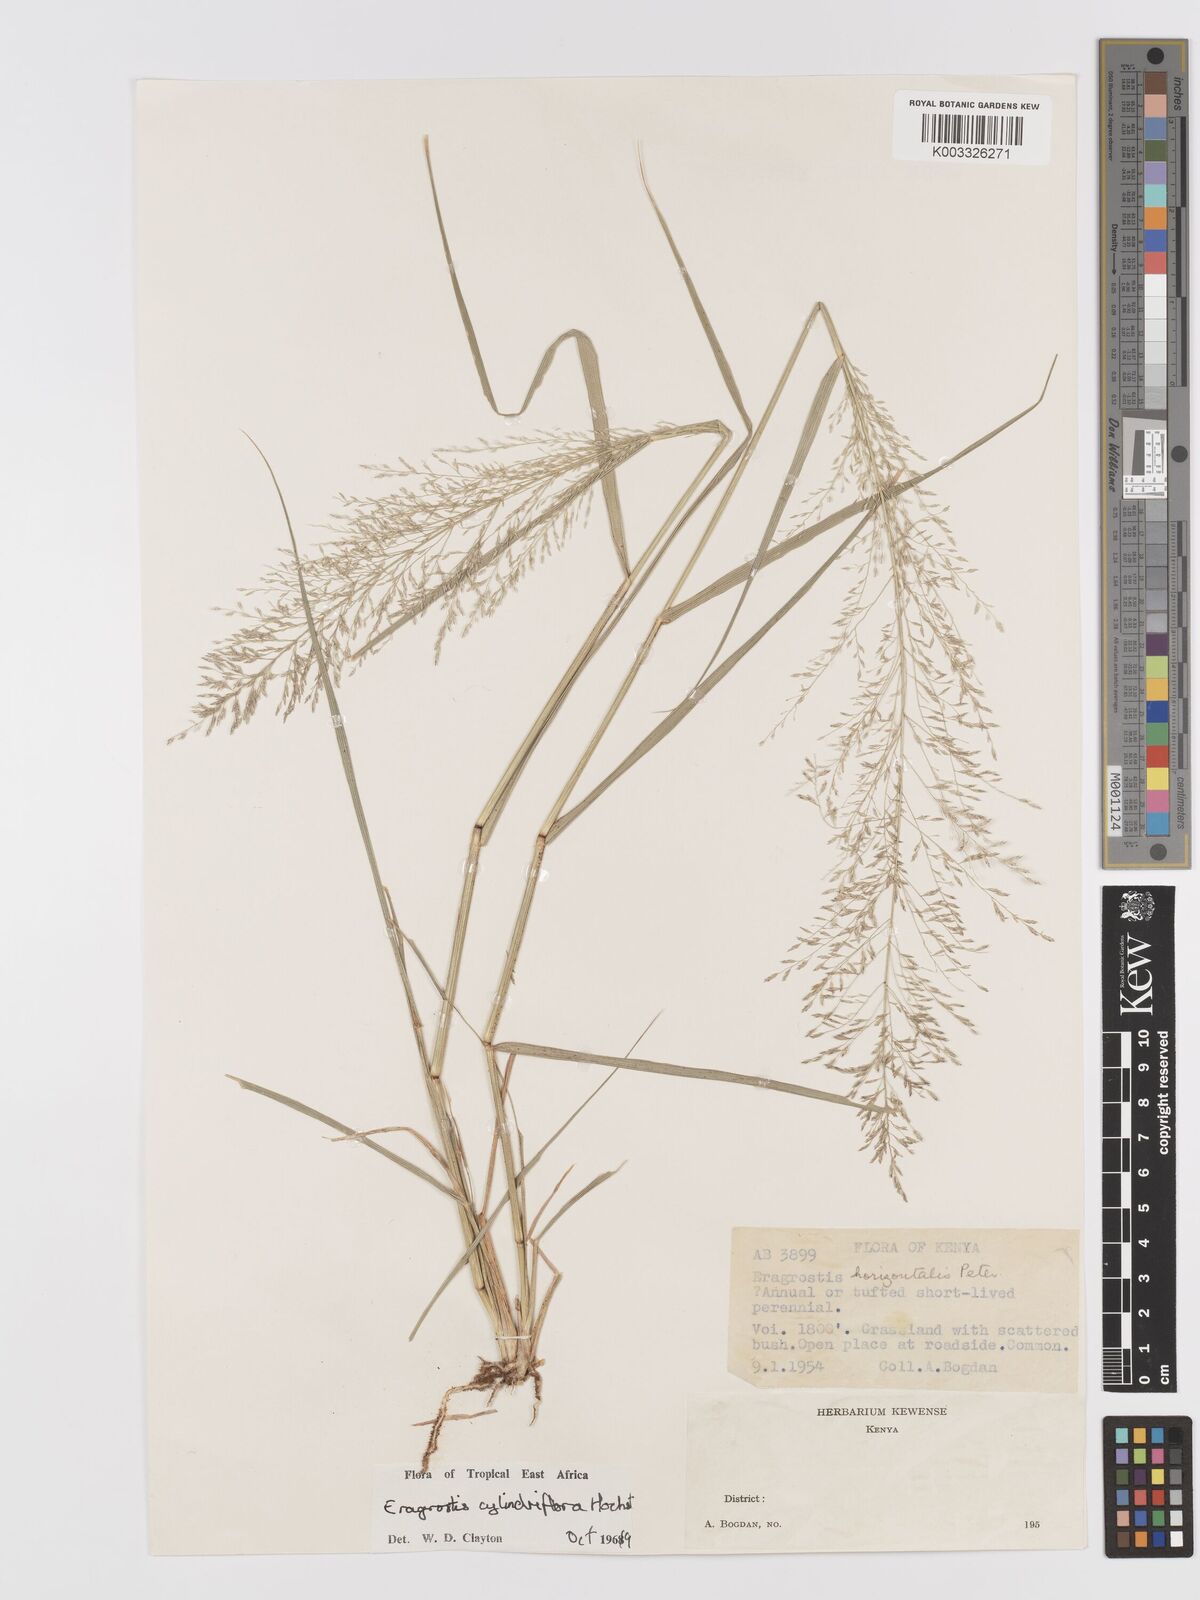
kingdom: Plantae
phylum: Tracheophyta
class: Liliopsida
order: Poales
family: Poaceae
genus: Eragrostis
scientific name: Eragrostis cylindriflora
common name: Cylinderflower lovegrass
